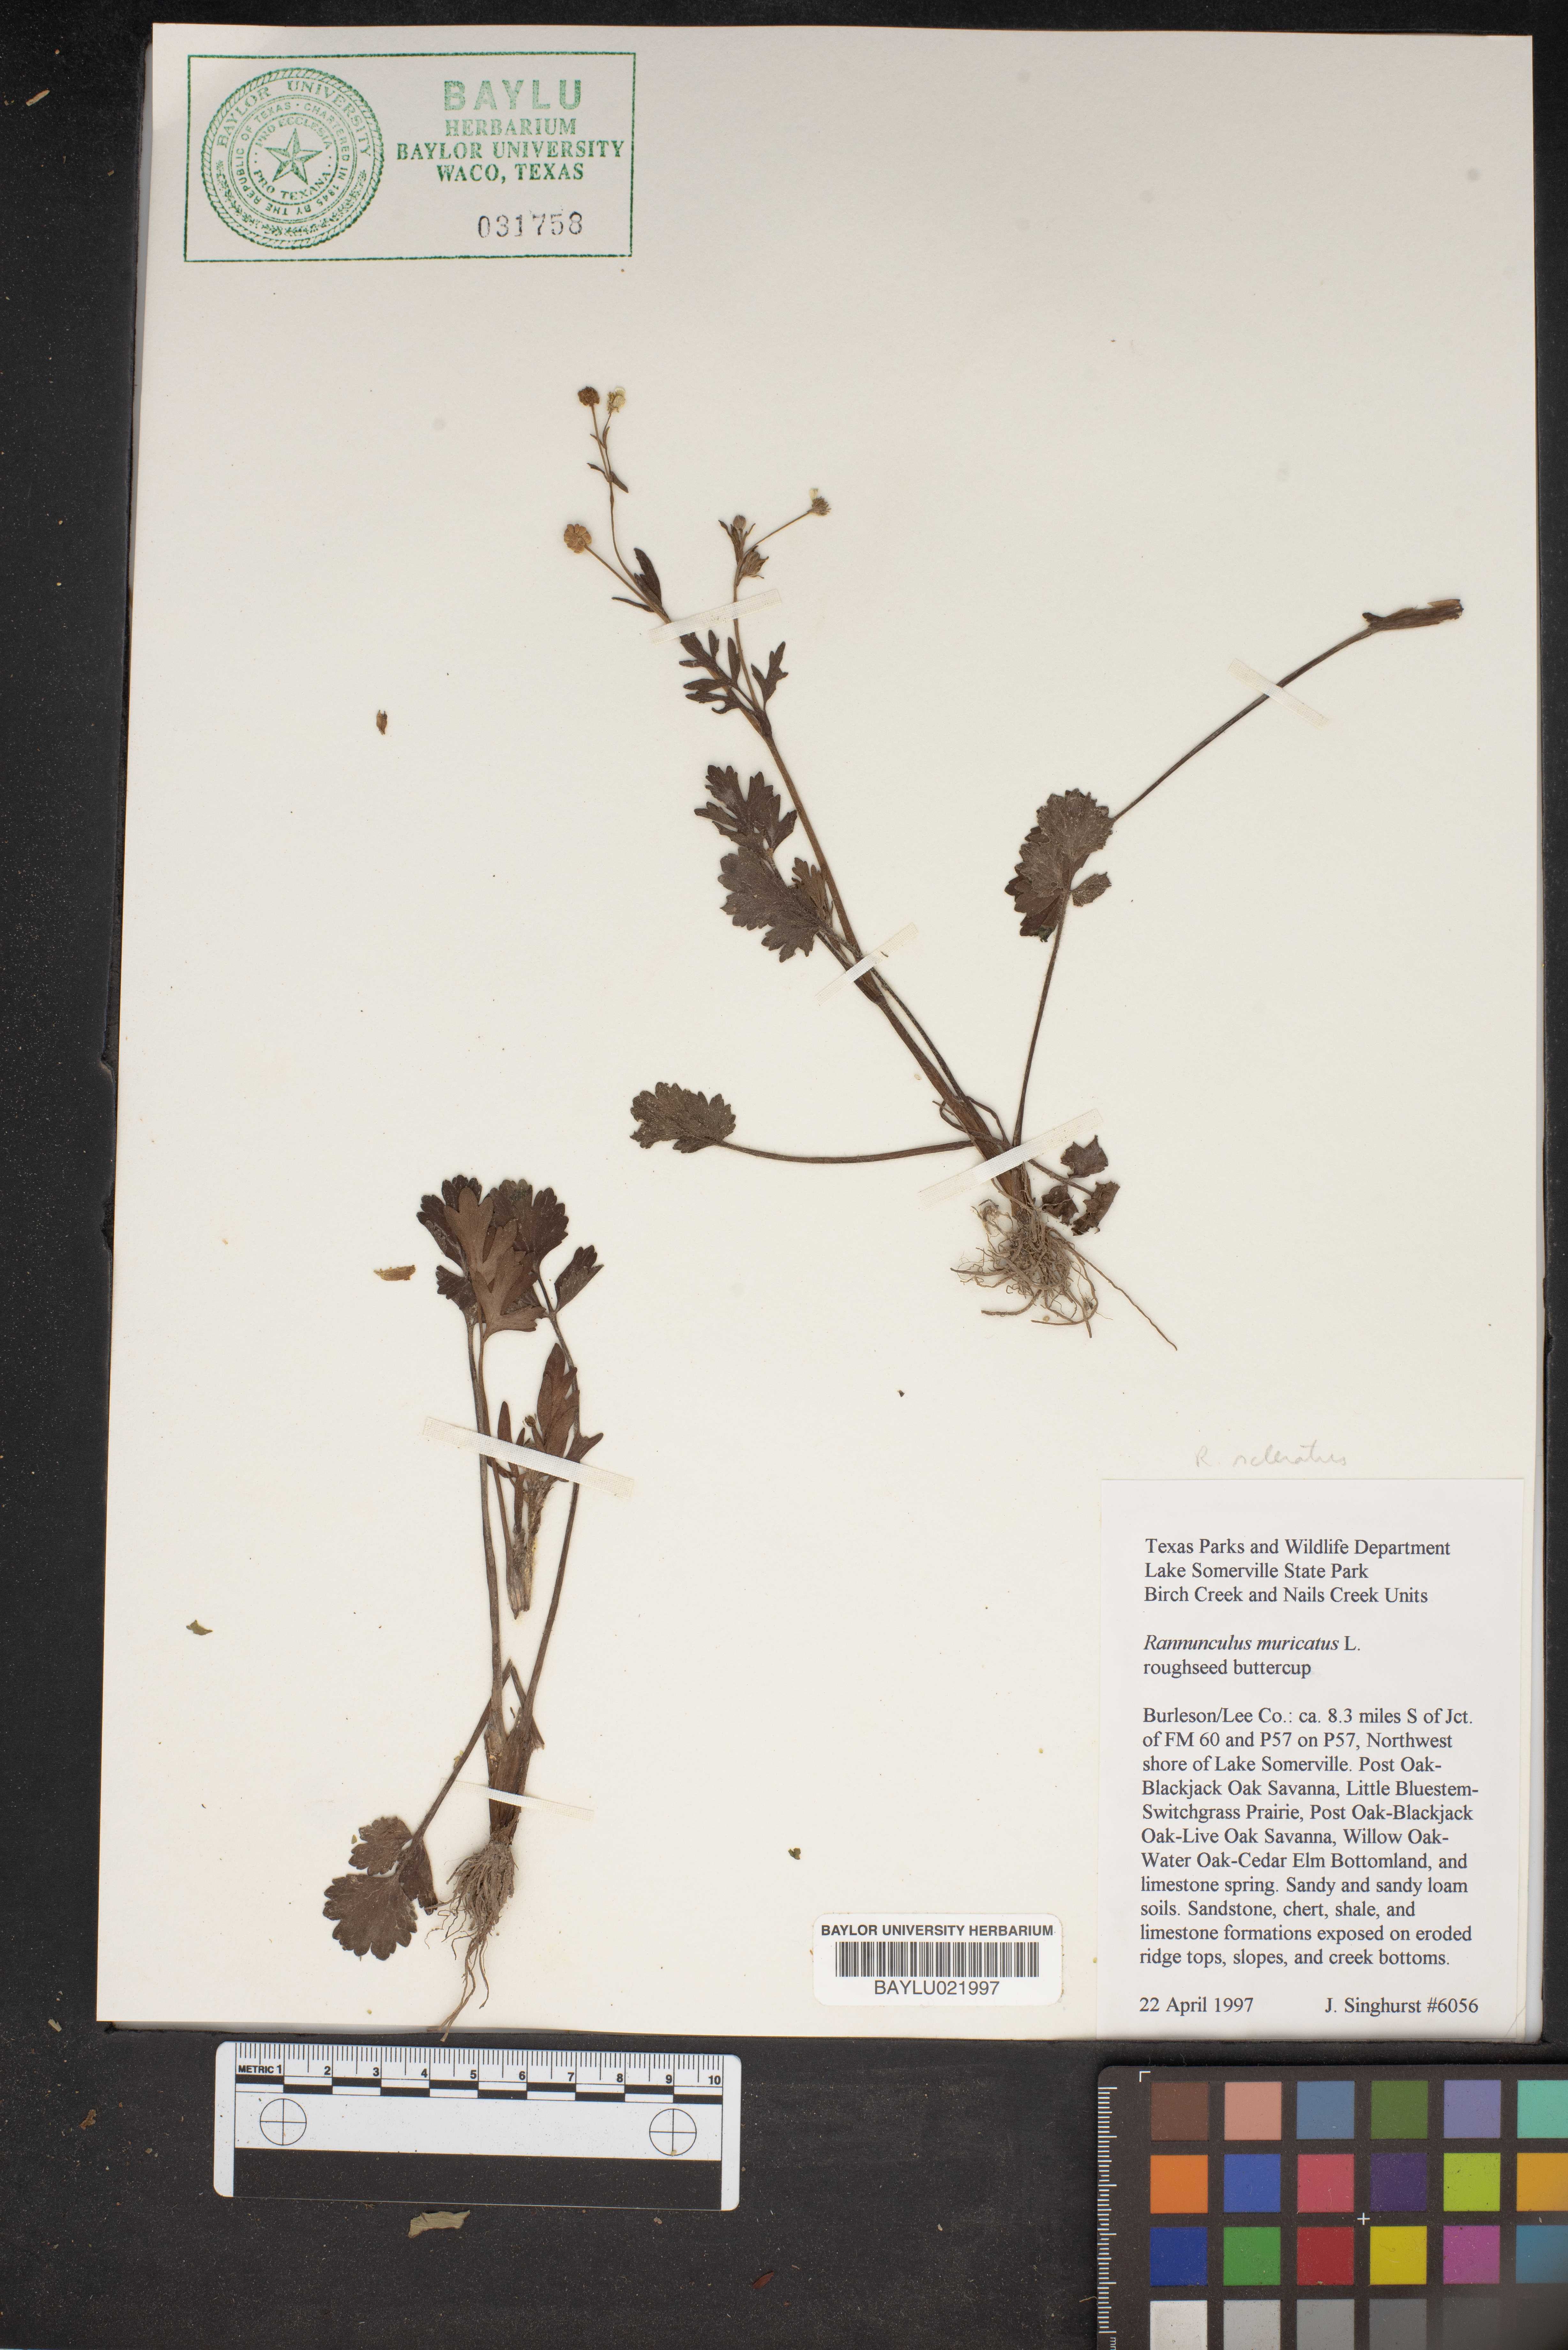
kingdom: Plantae
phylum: Tracheophyta
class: Magnoliopsida
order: Ranunculales
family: Ranunculaceae
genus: Ranunculus
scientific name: Ranunculus muricatus
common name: Rough-fruited buttercup
